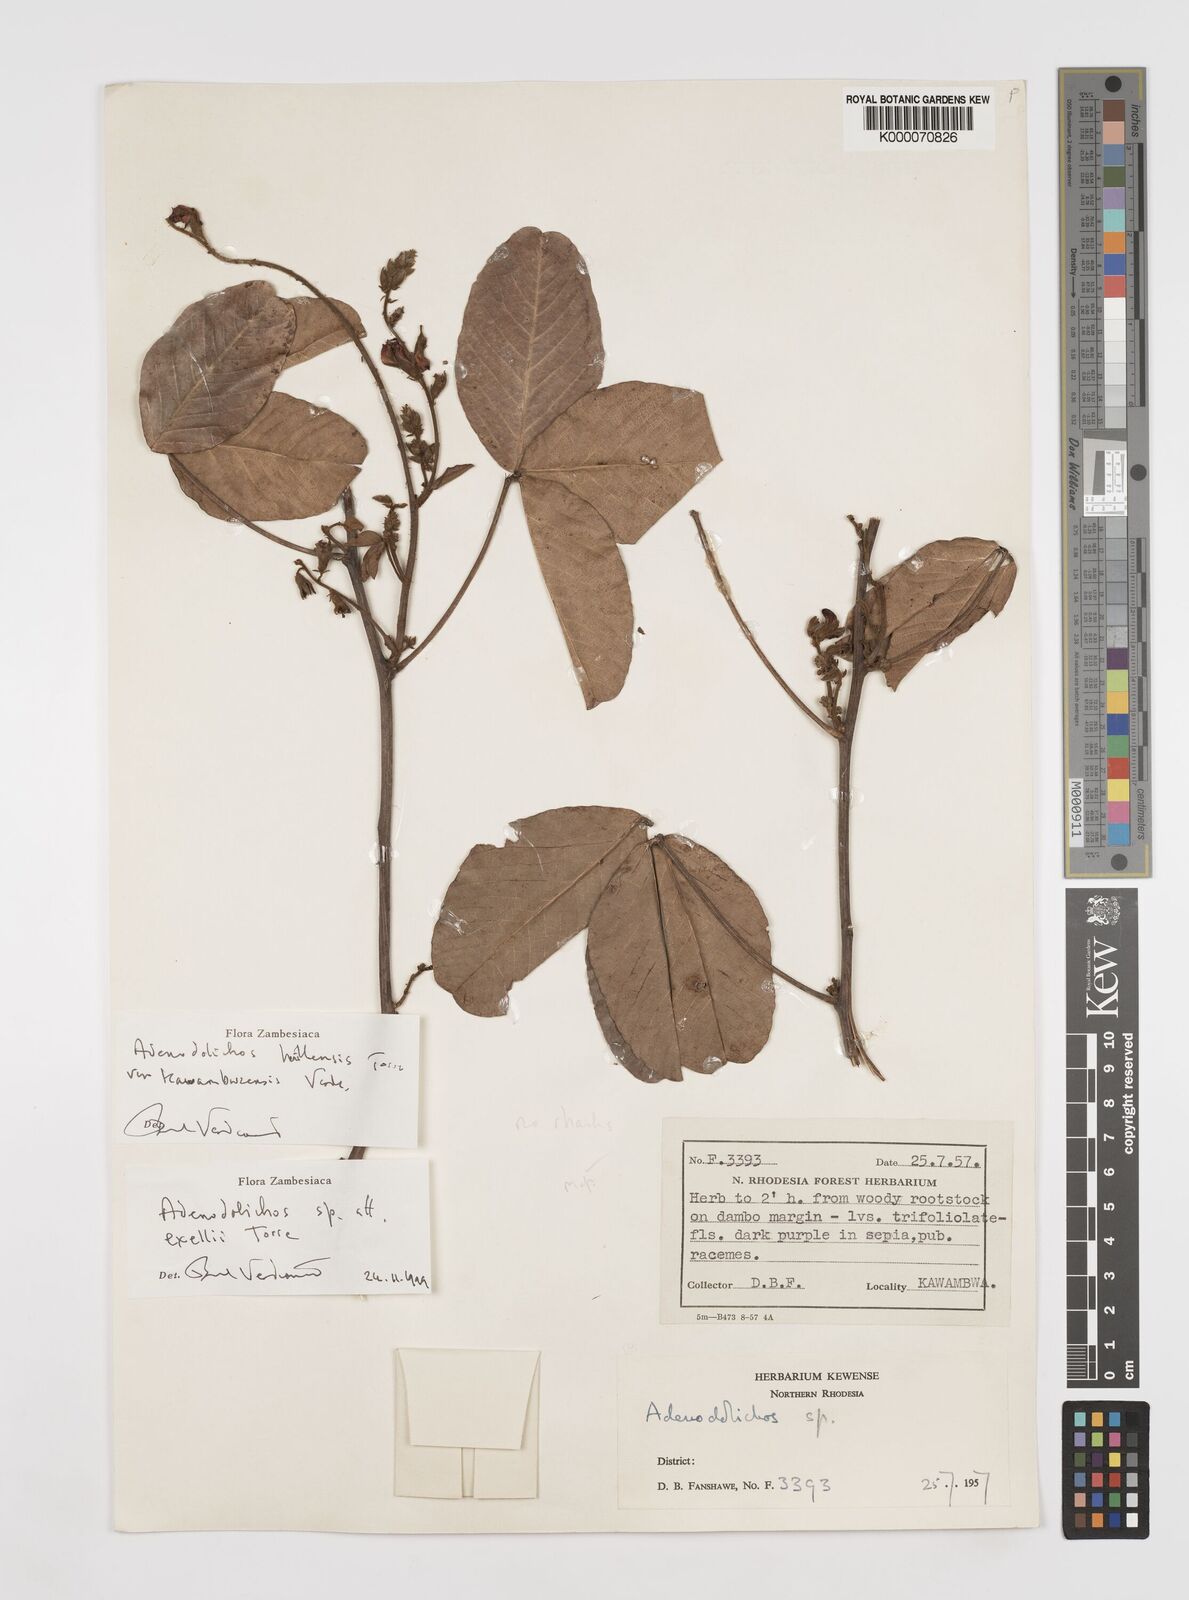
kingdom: Plantae
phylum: Tracheophyta
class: Magnoliopsida
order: Fabales
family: Fabaceae
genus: Adenodolichos
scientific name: Adenodolichos huillensis
